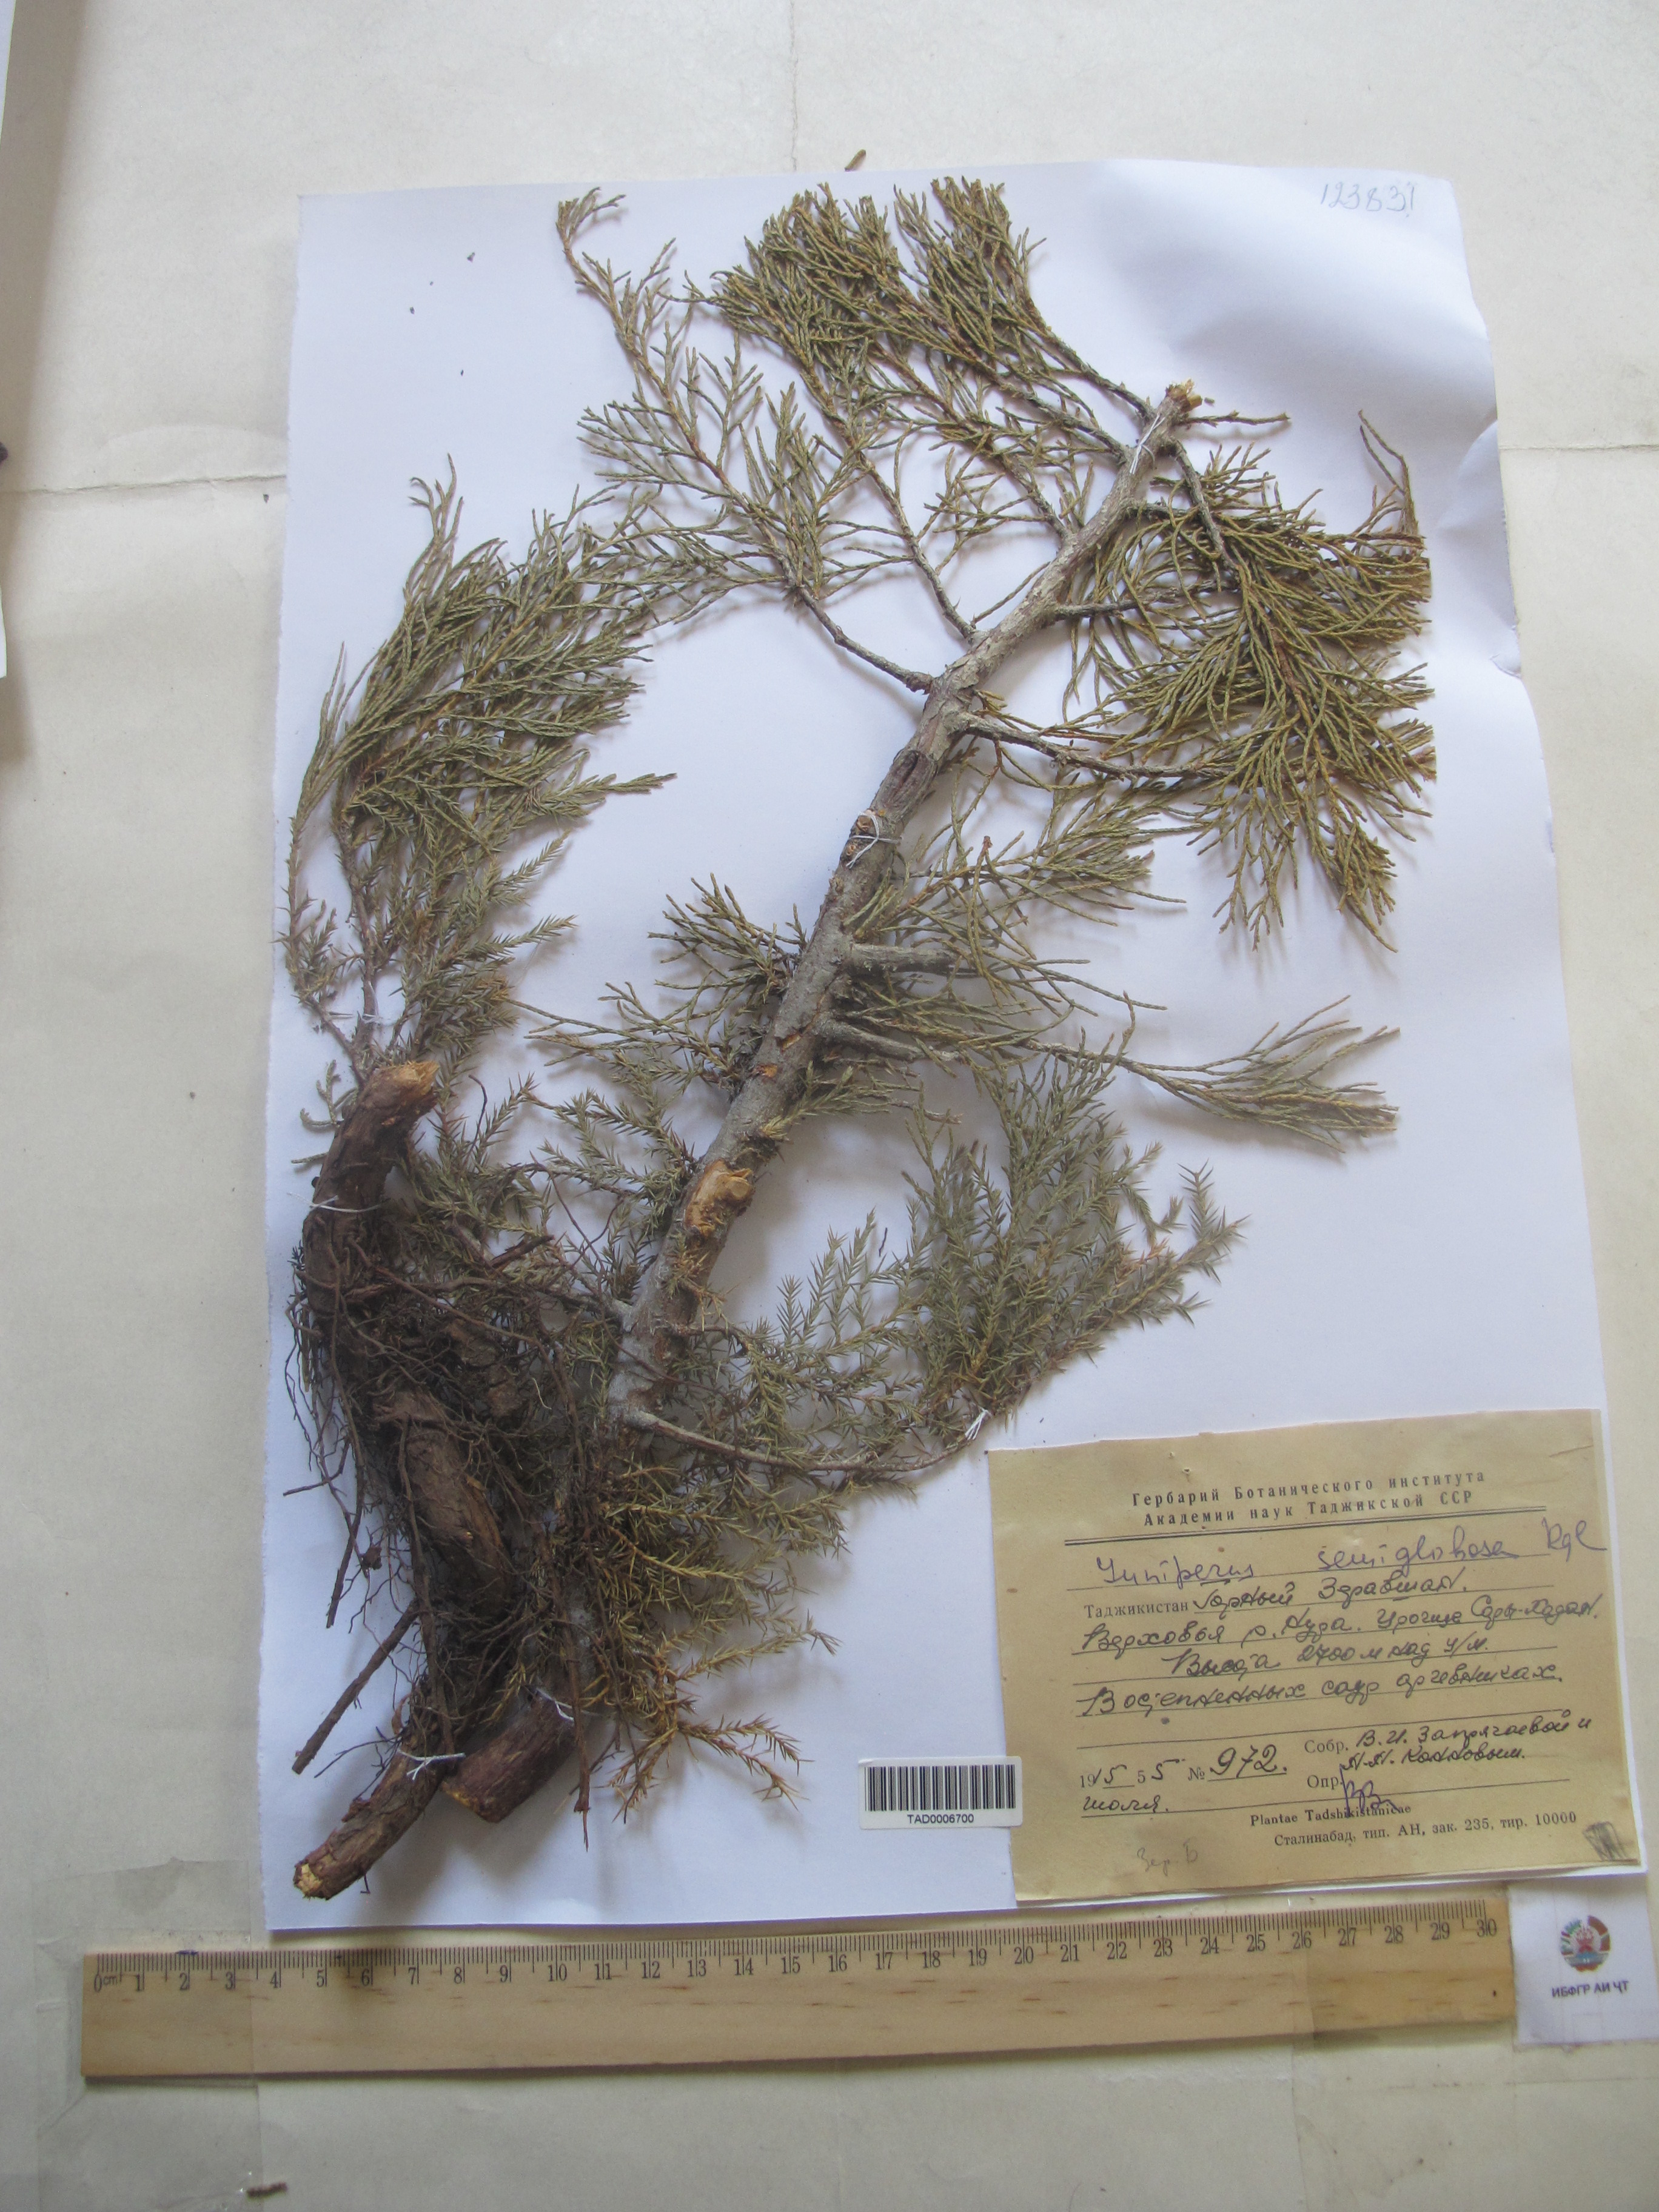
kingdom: Plantae
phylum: Tracheophyta
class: Pinopsida
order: Pinales
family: Cupressaceae
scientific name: Cupressaceae
